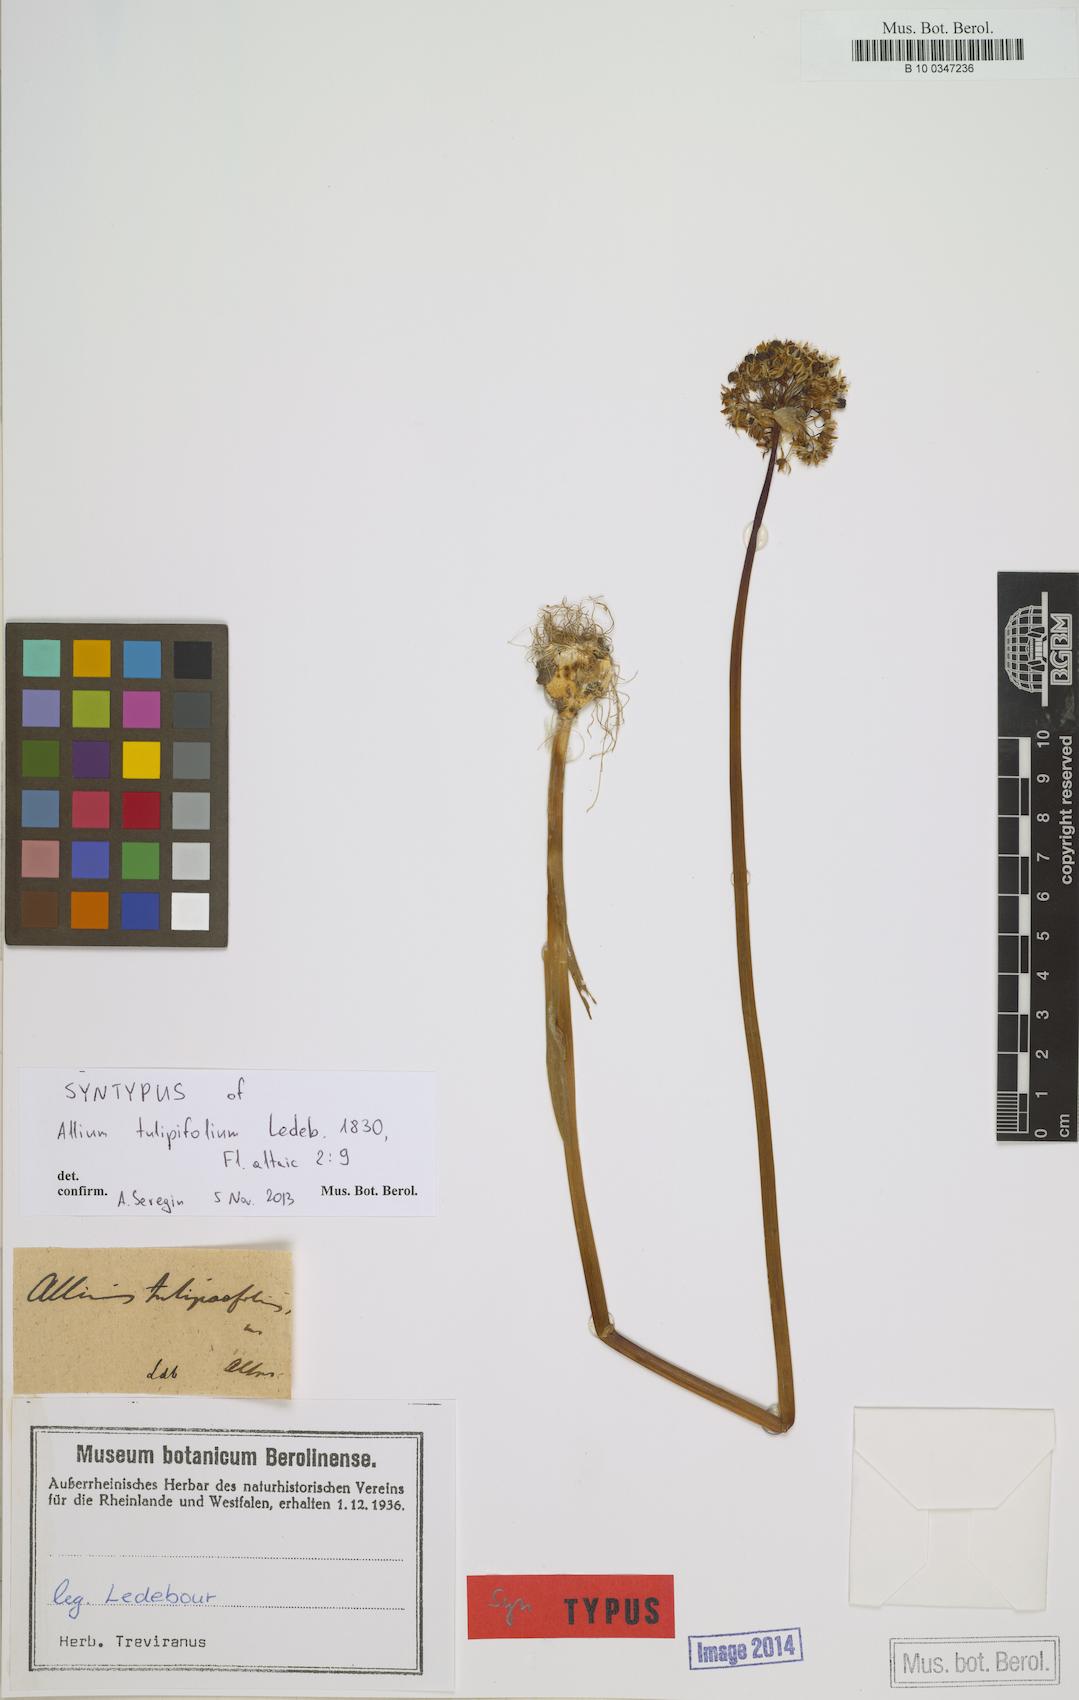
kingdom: Plantae
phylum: Tracheophyta
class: Liliopsida
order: Asparagales
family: Amaryllidaceae
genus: Allium
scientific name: Allium tulipifolium
